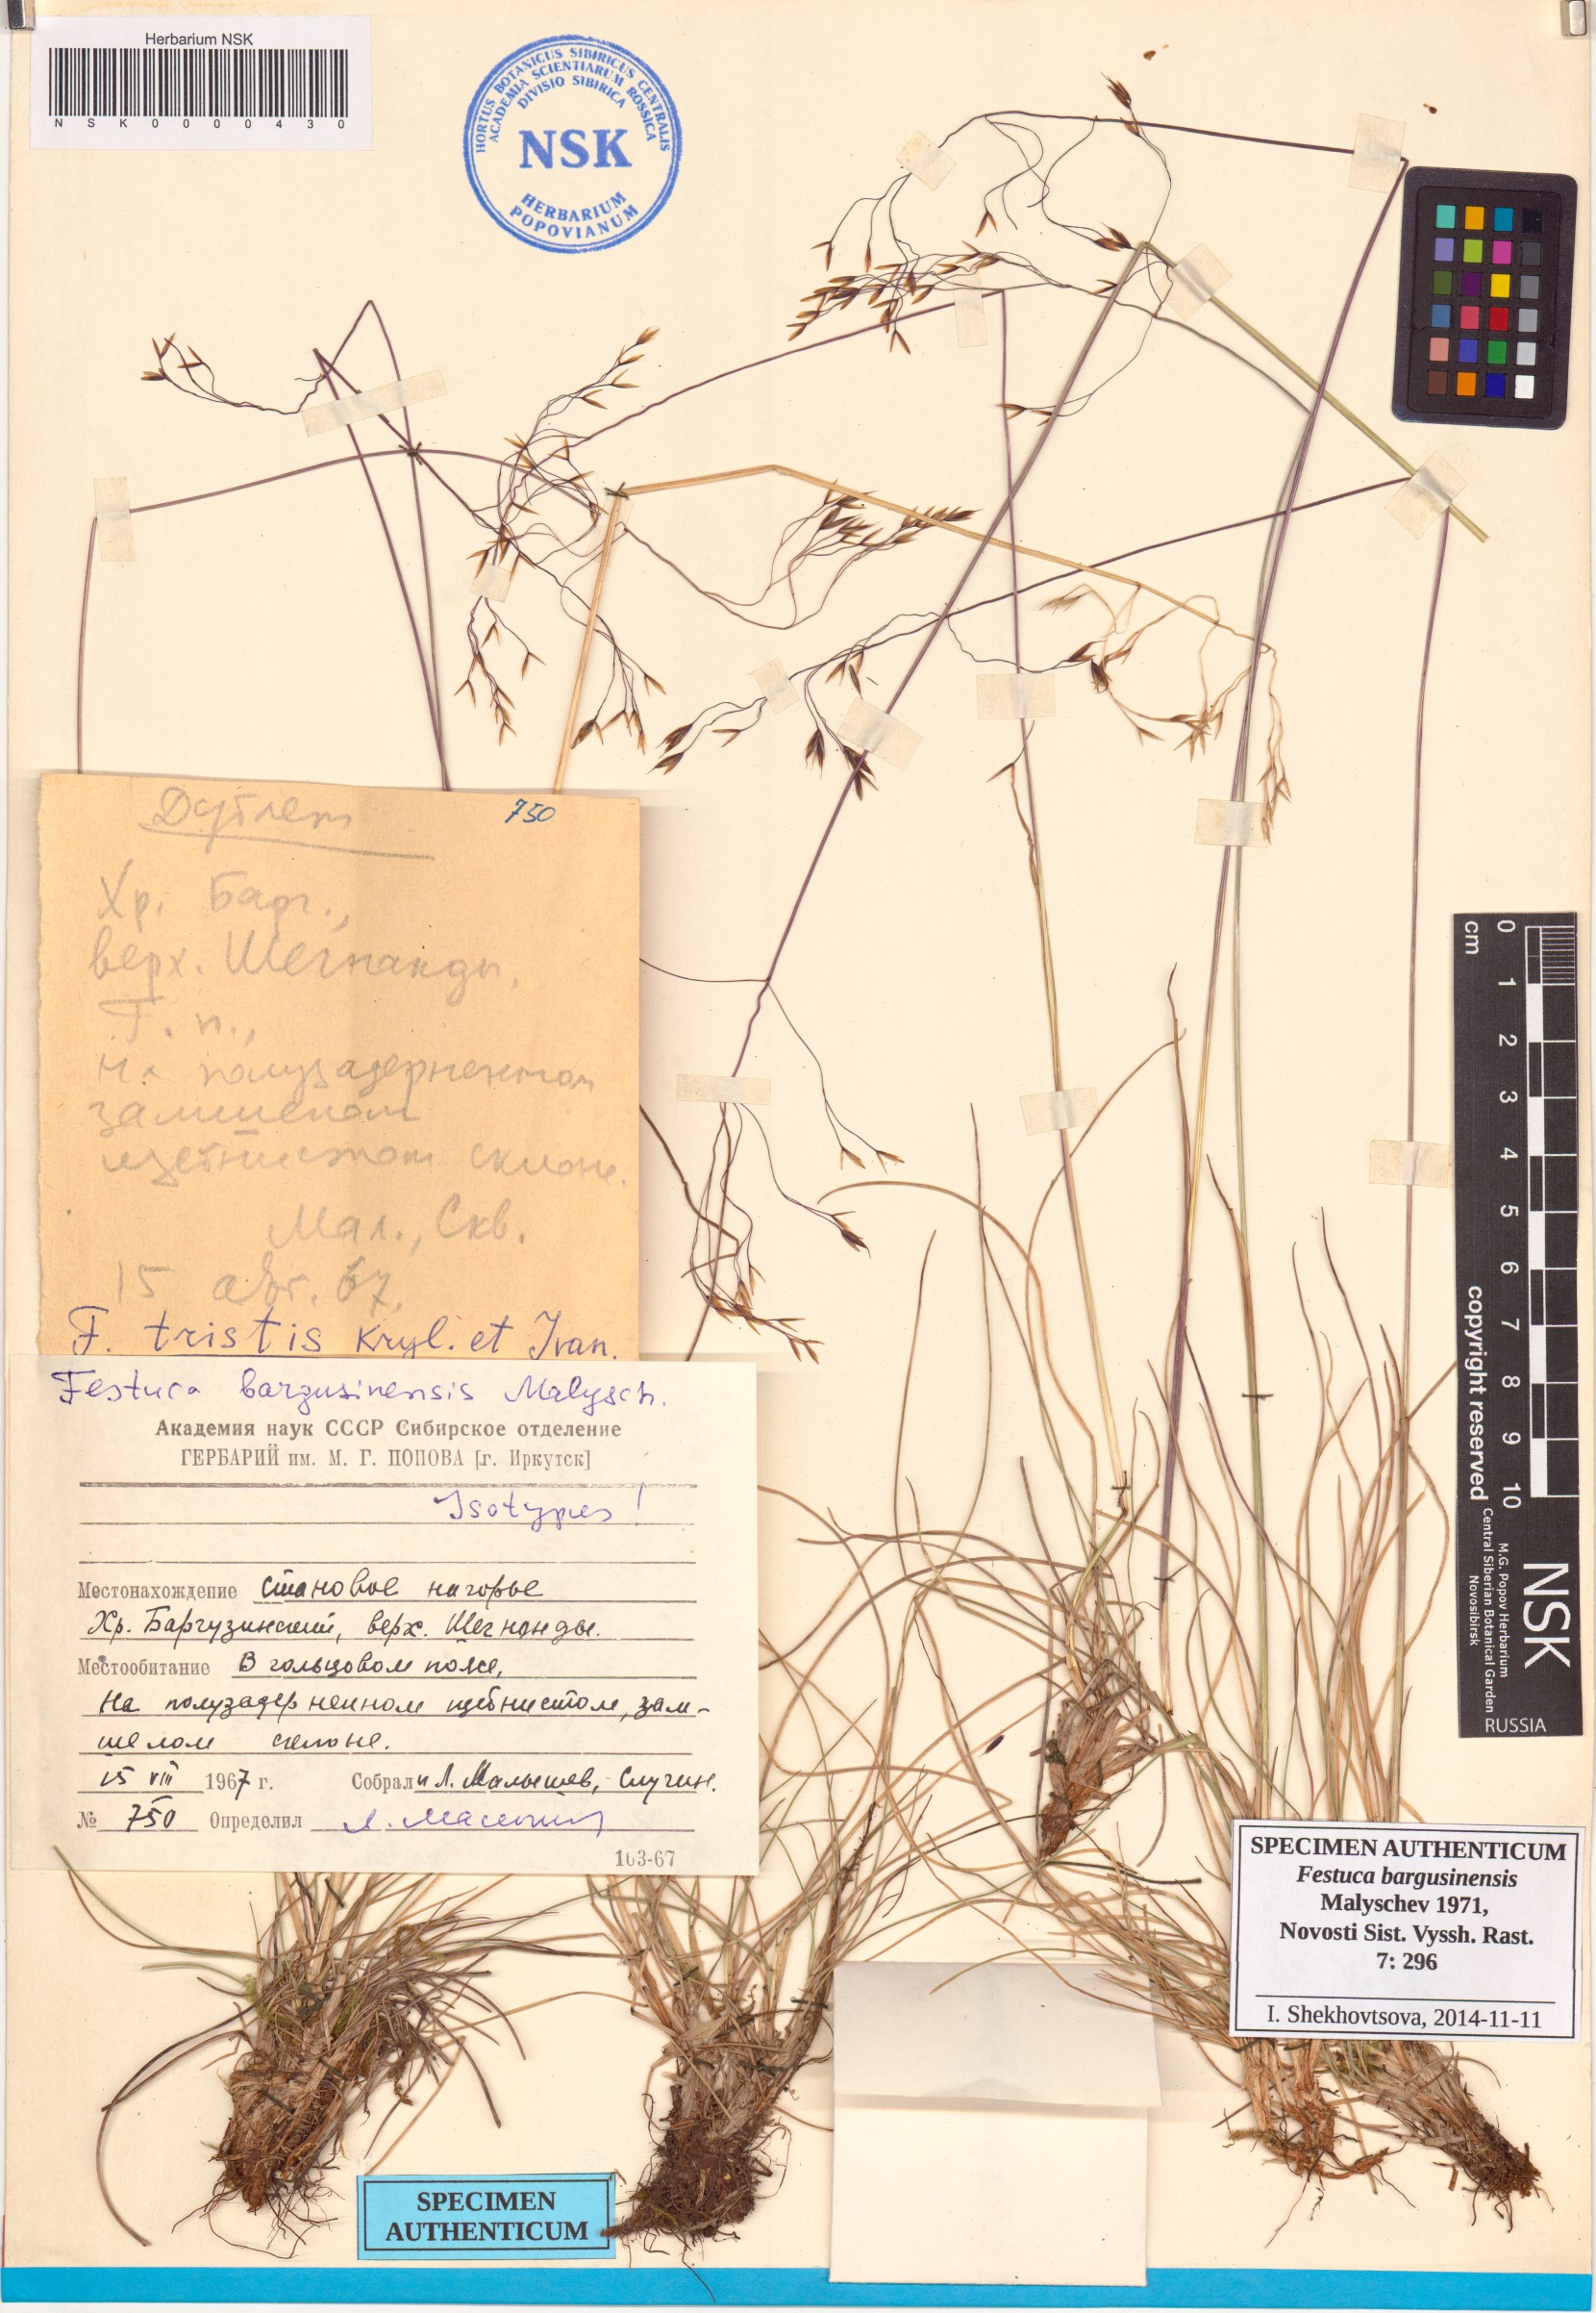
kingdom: Plantae
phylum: Tracheophyta
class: Liliopsida
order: Poales
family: Poaceae
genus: Festuca
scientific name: Festuca bargusinensis
